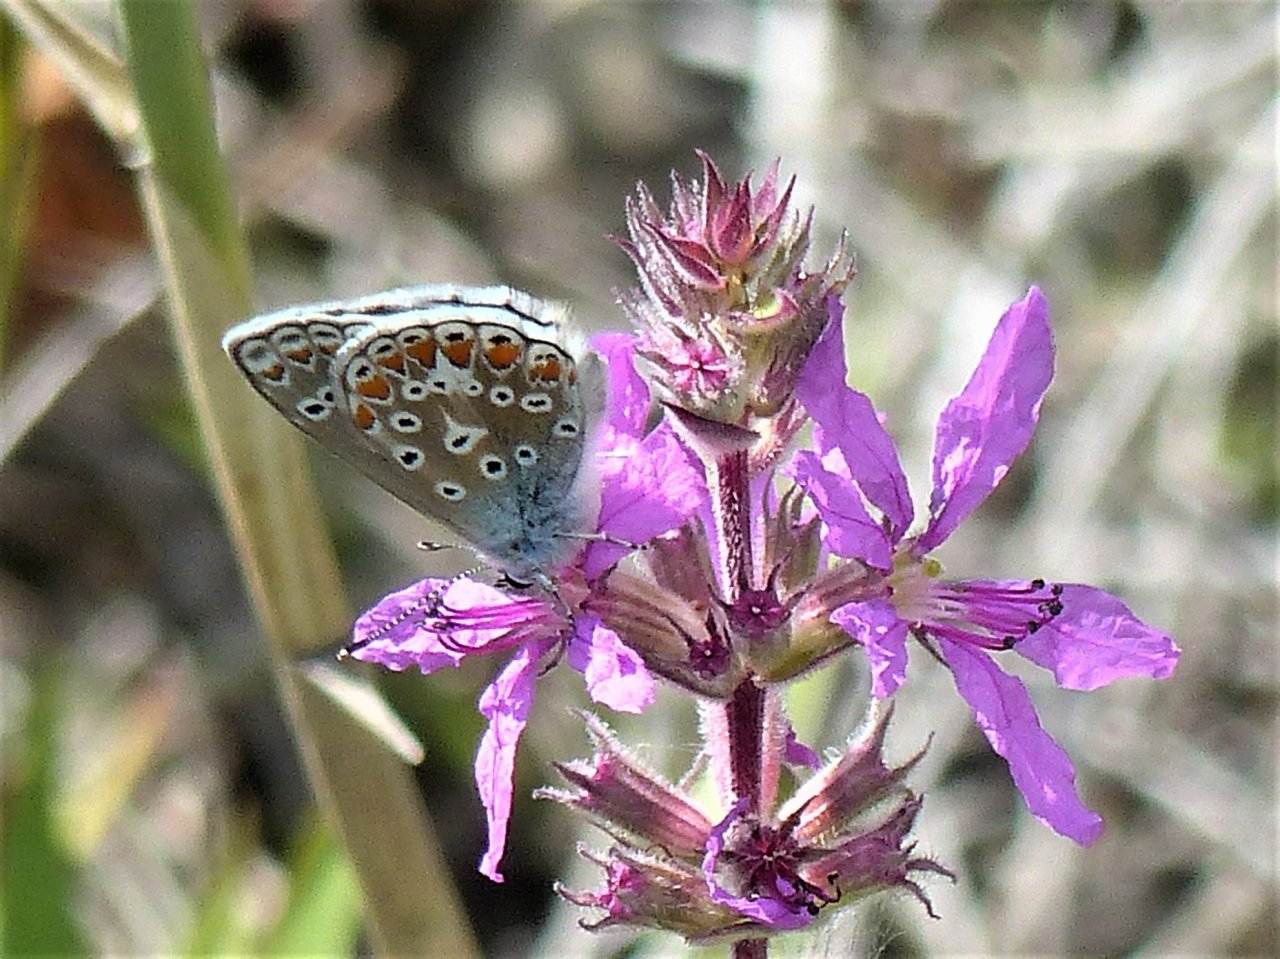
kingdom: Animalia
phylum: Arthropoda
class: Insecta
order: Lepidoptera
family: Lycaenidae
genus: Polyommatus
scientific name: Polyommatus icarus
